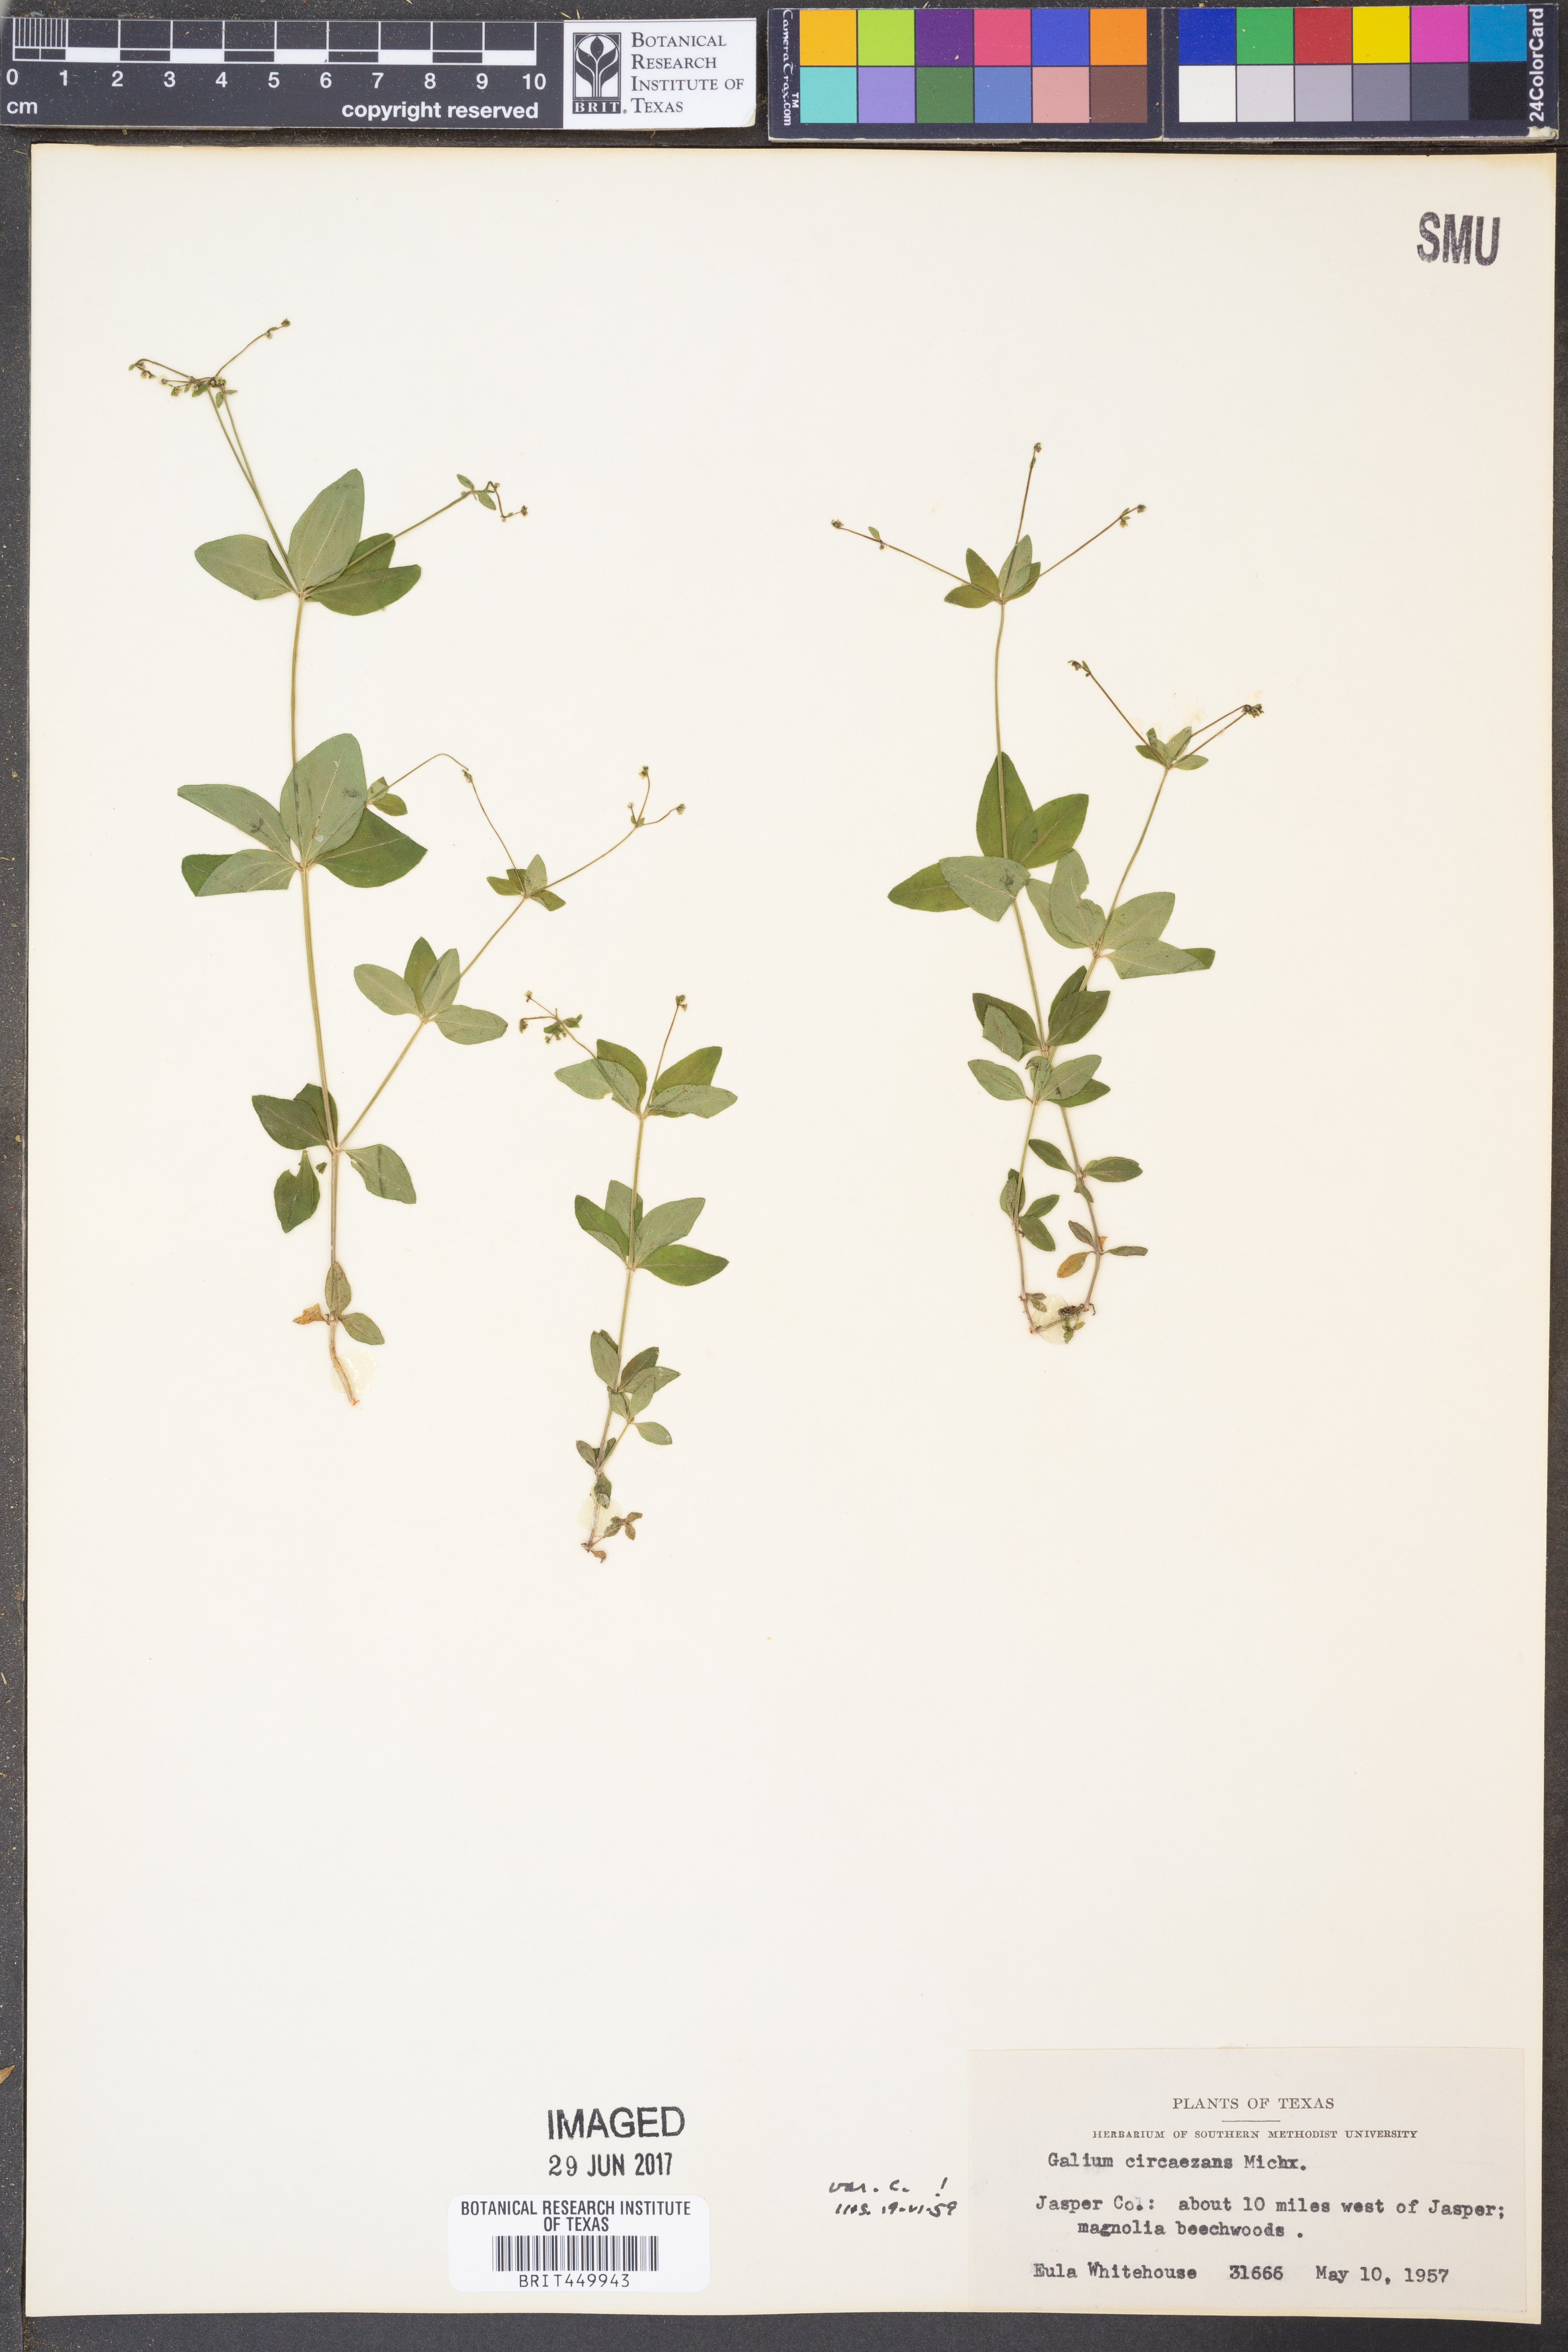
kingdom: Plantae
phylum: Tracheophyta
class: Magnoliopsida
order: Gentianales
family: Rubiaceae
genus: Galium
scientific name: Galium circaezans
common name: Forest bedstraw
